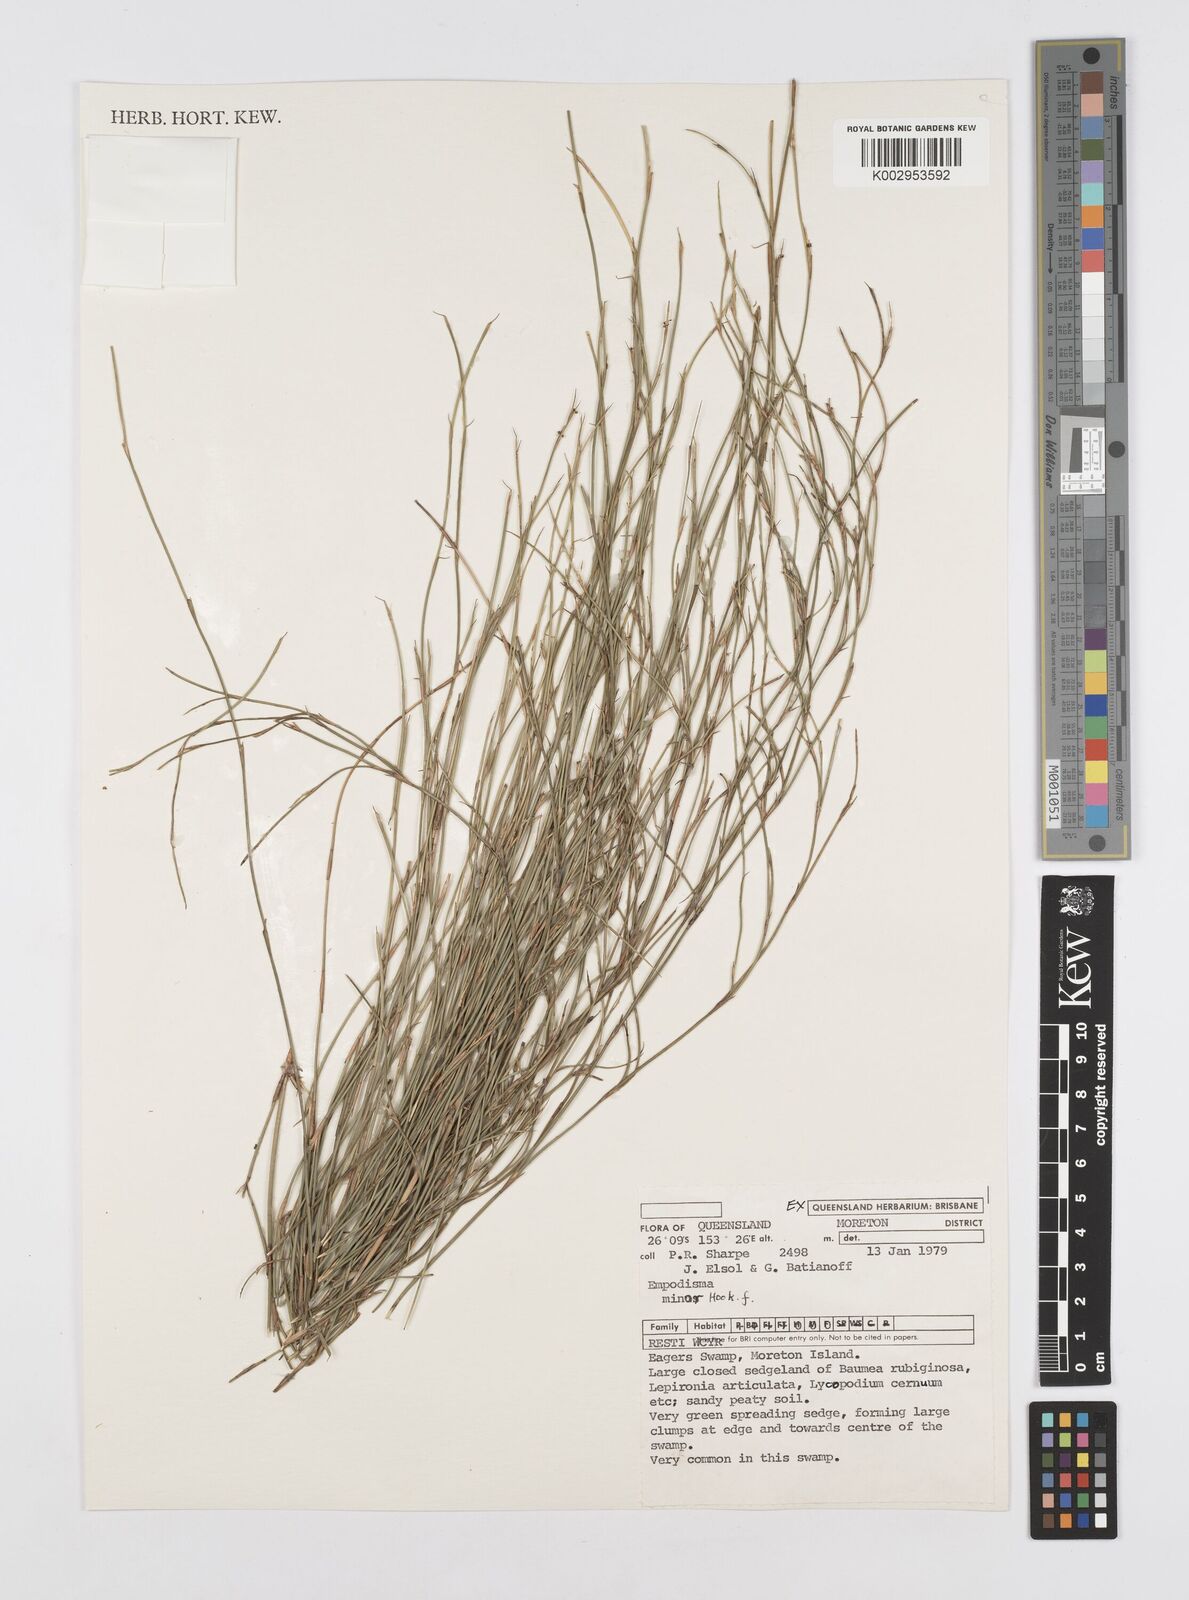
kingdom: Plantae
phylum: Tracheophyta
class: Liliopsida
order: Poales
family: Restionaceae
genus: Empodisma
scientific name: Empodisma minus
